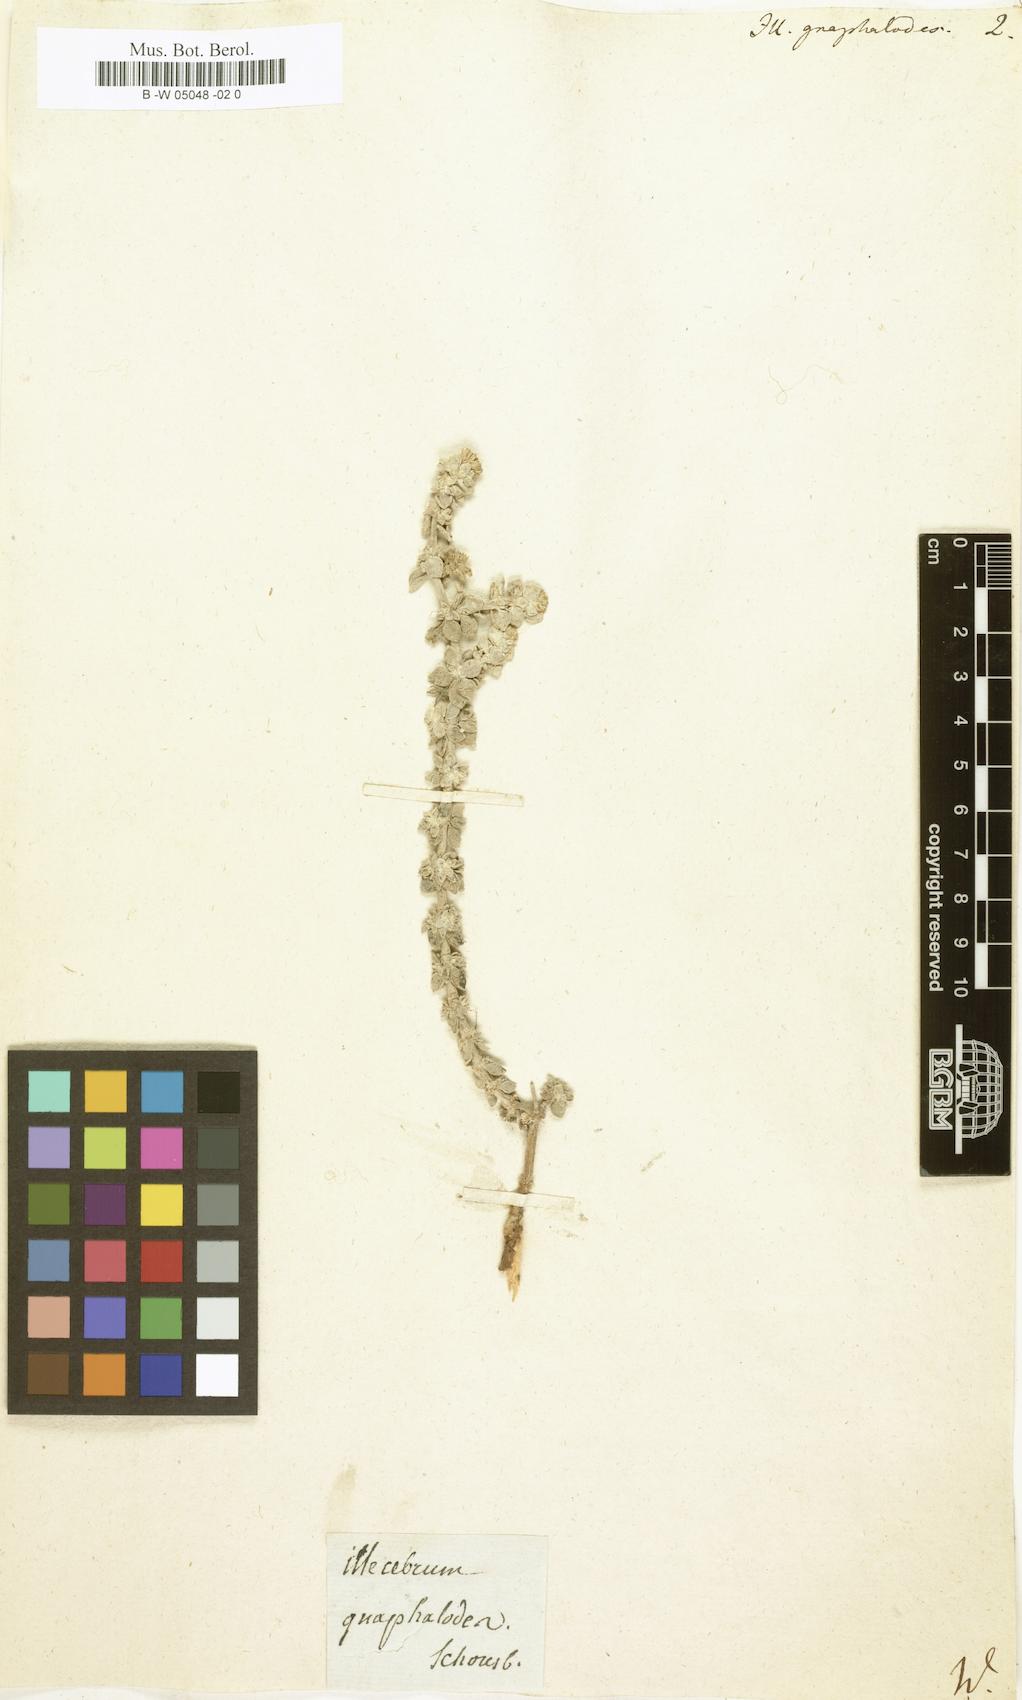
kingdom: Plantae
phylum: Tracheophyta
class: Magnoliopsida
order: Caryophyllales
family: Caryophyllaceae
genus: Polycarpaea
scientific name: Polycarpaea nivea
